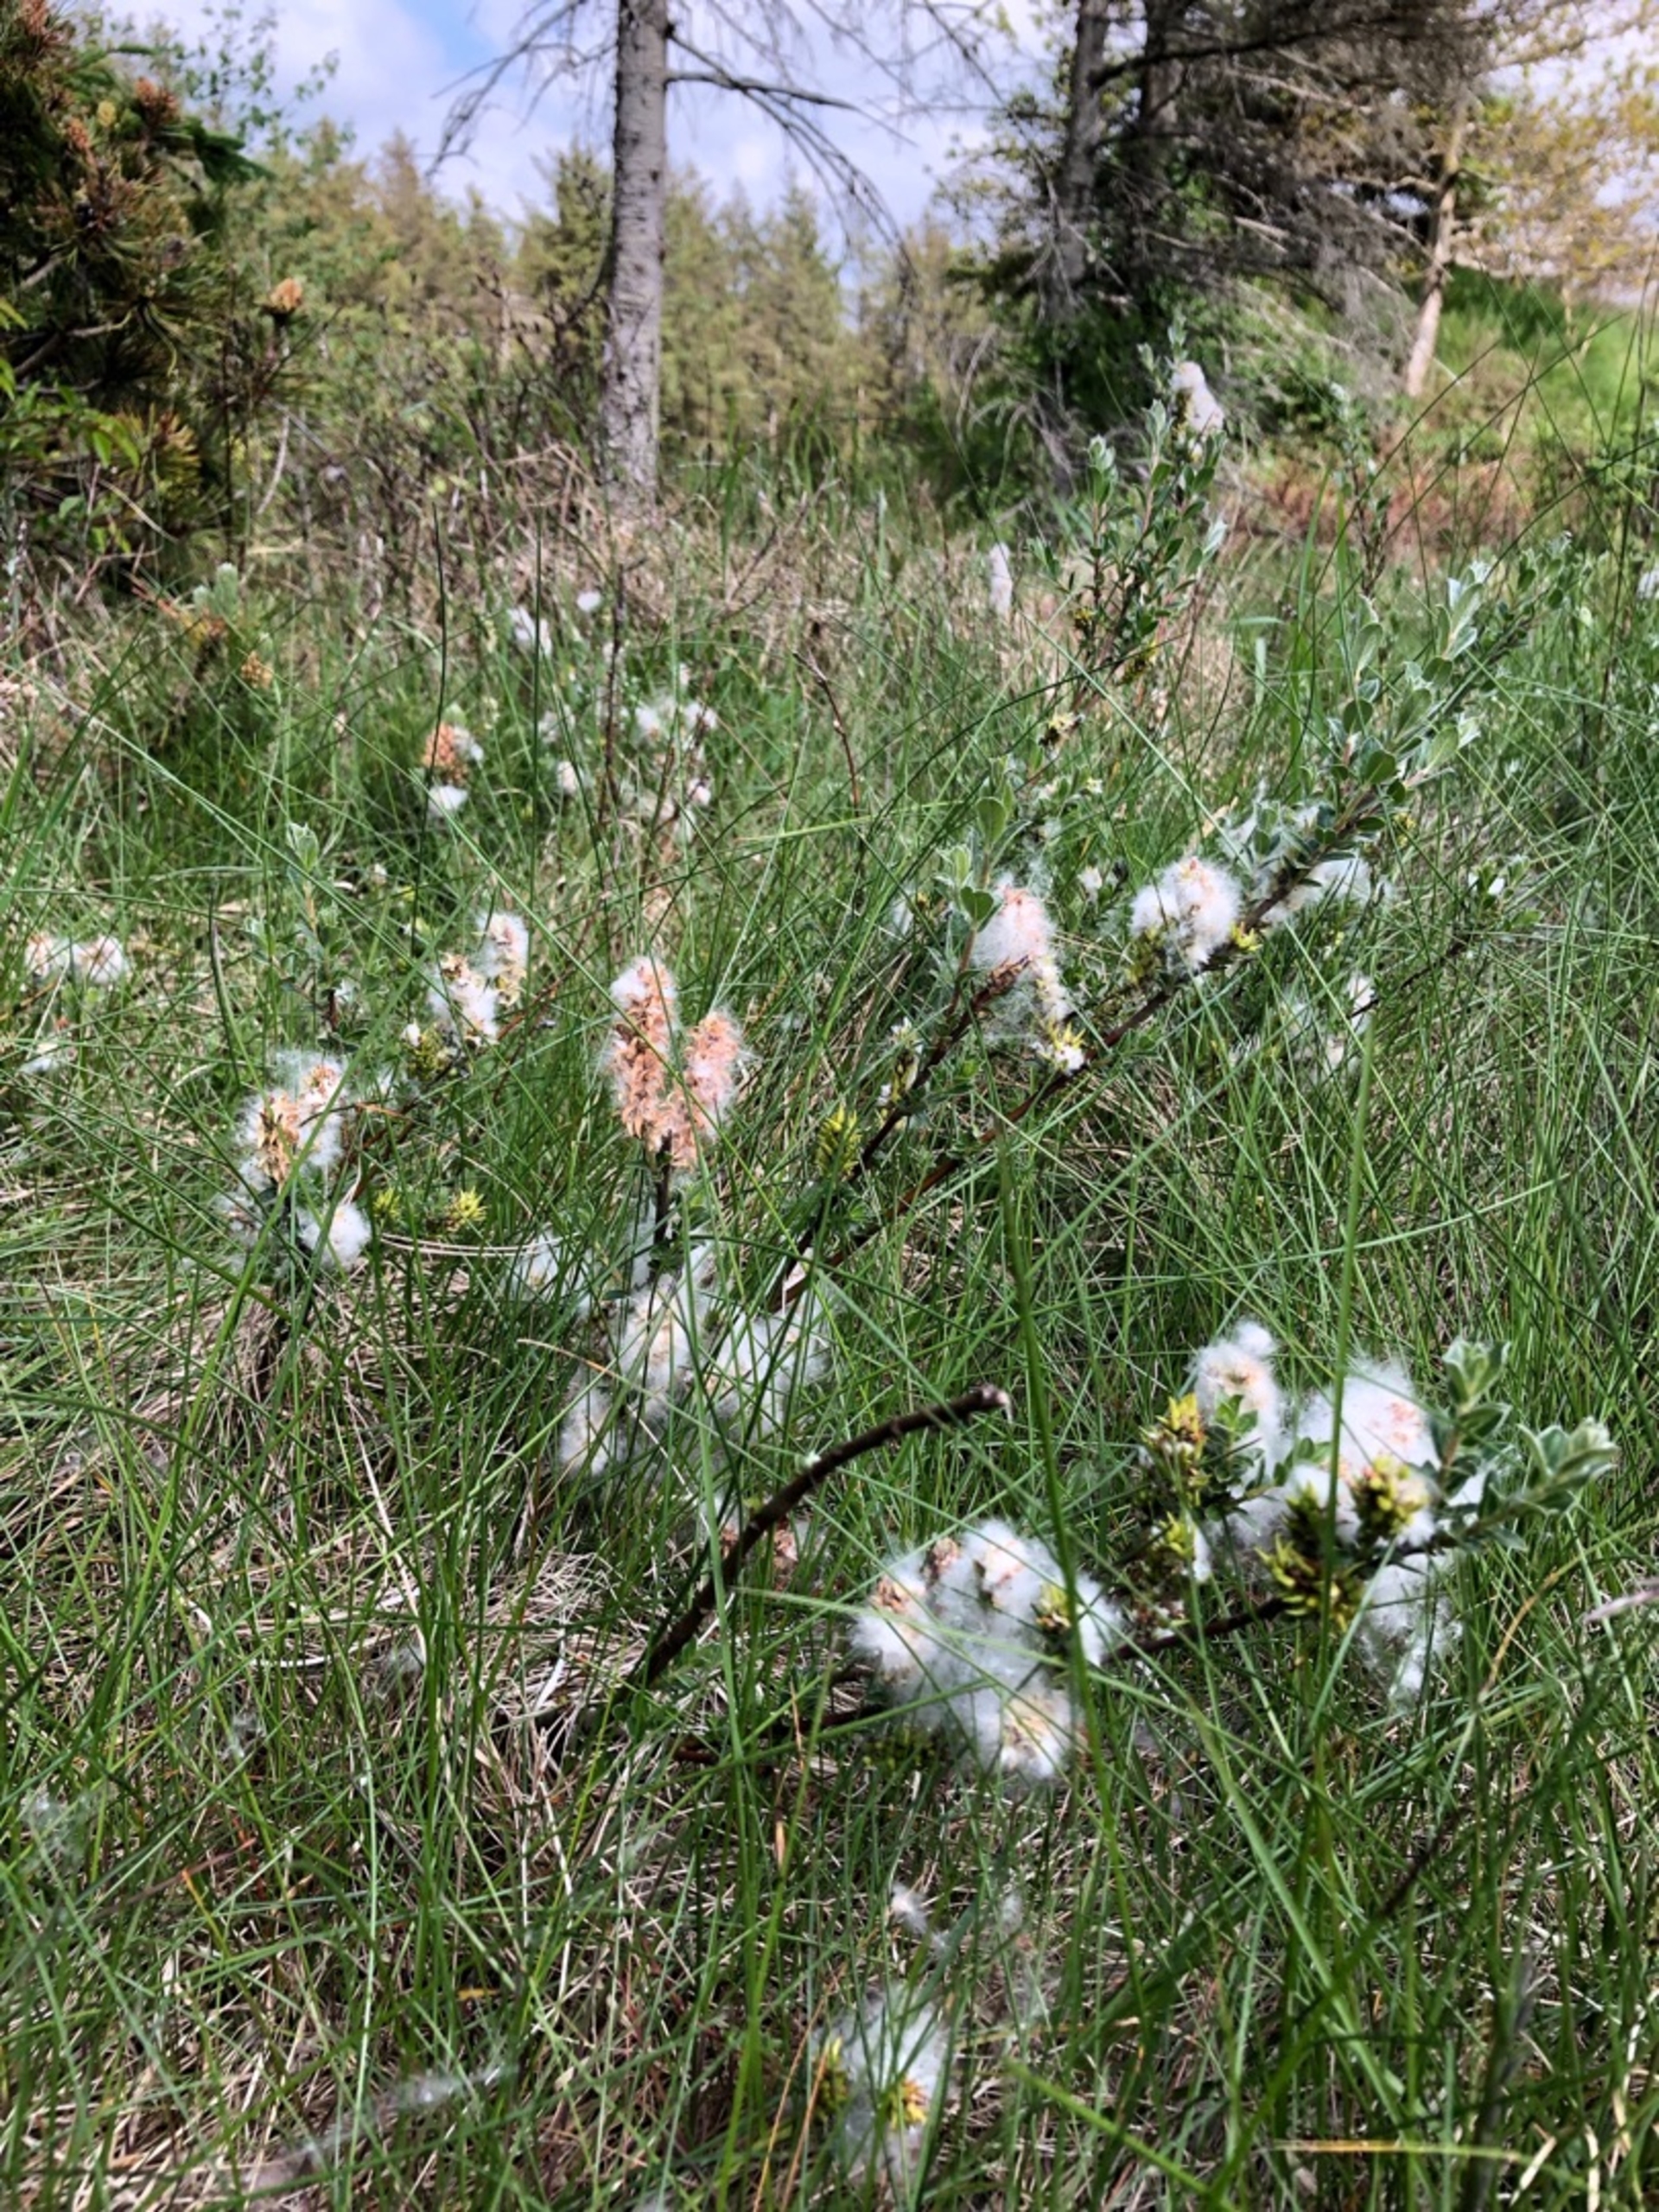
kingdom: Plantae
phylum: Tracheophyta
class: Magnoliopsida
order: Malpighiales
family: Salicaceae
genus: Salix
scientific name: Salix repens
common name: Krybende pil
